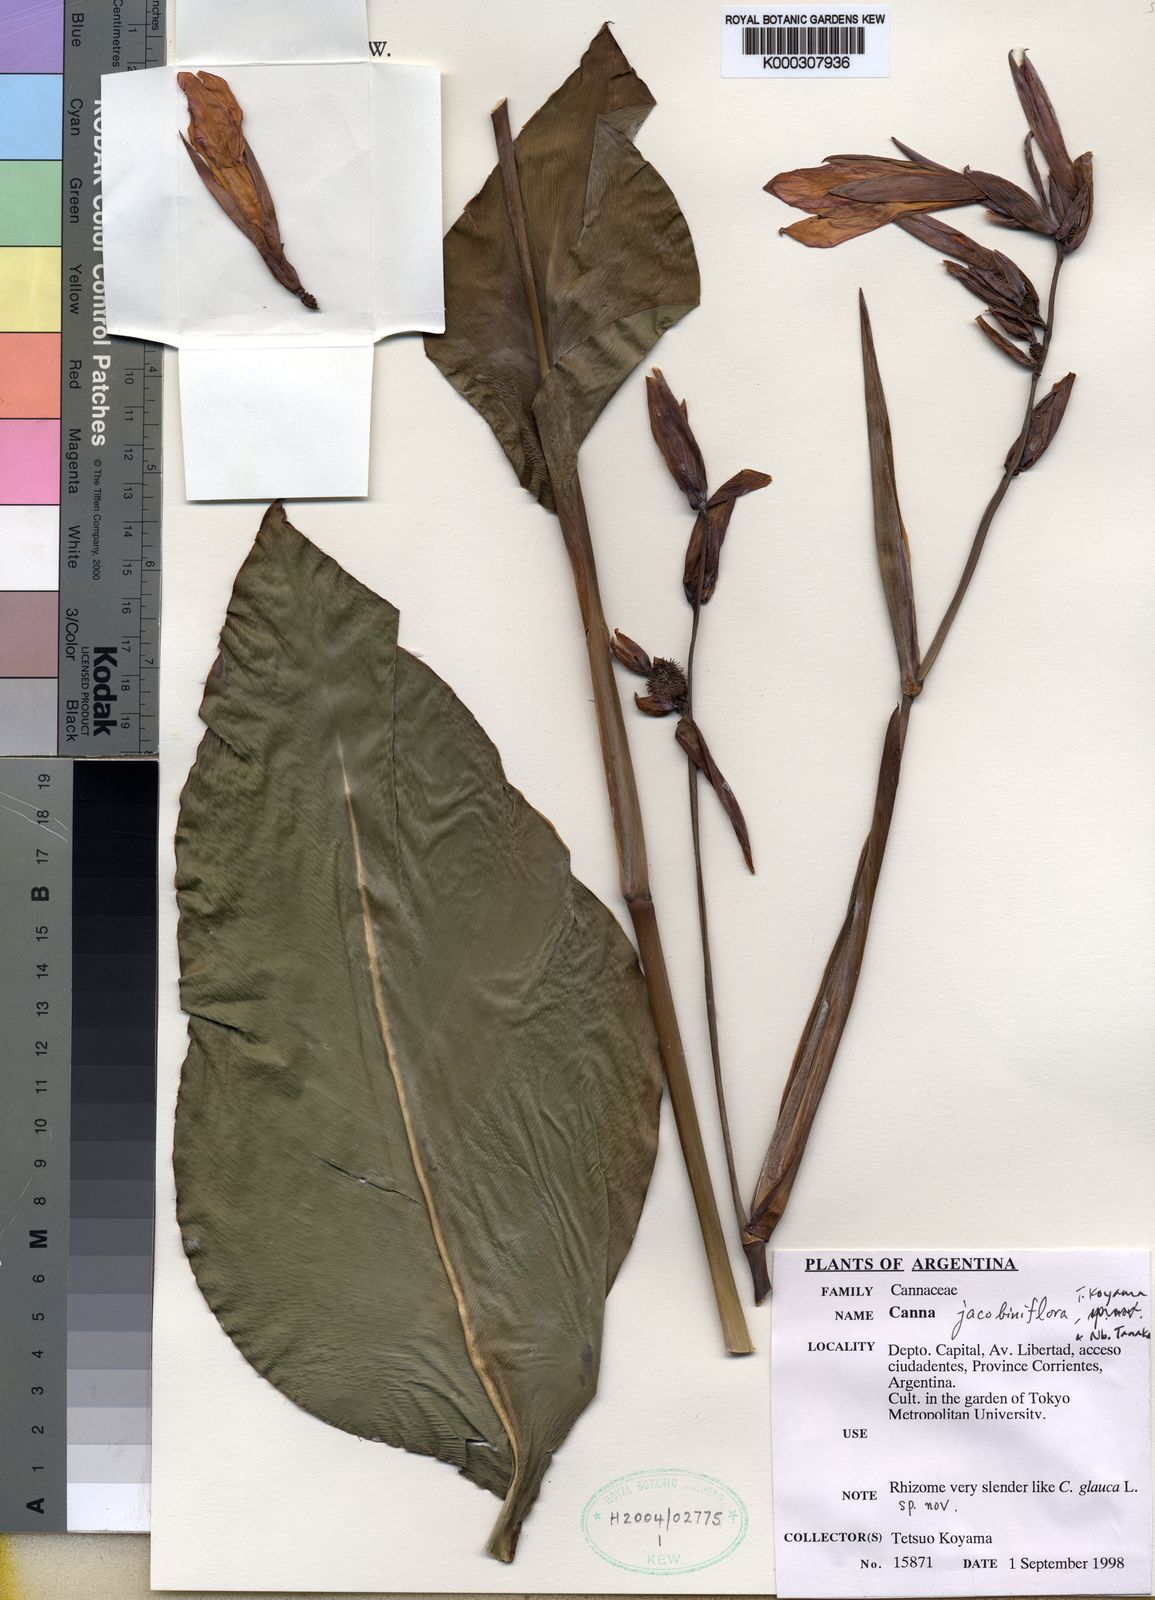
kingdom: Plantae
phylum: Tracheophyta
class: Liliopsida
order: Zingiberales
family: Cannaceae
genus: Canna
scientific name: Canna
